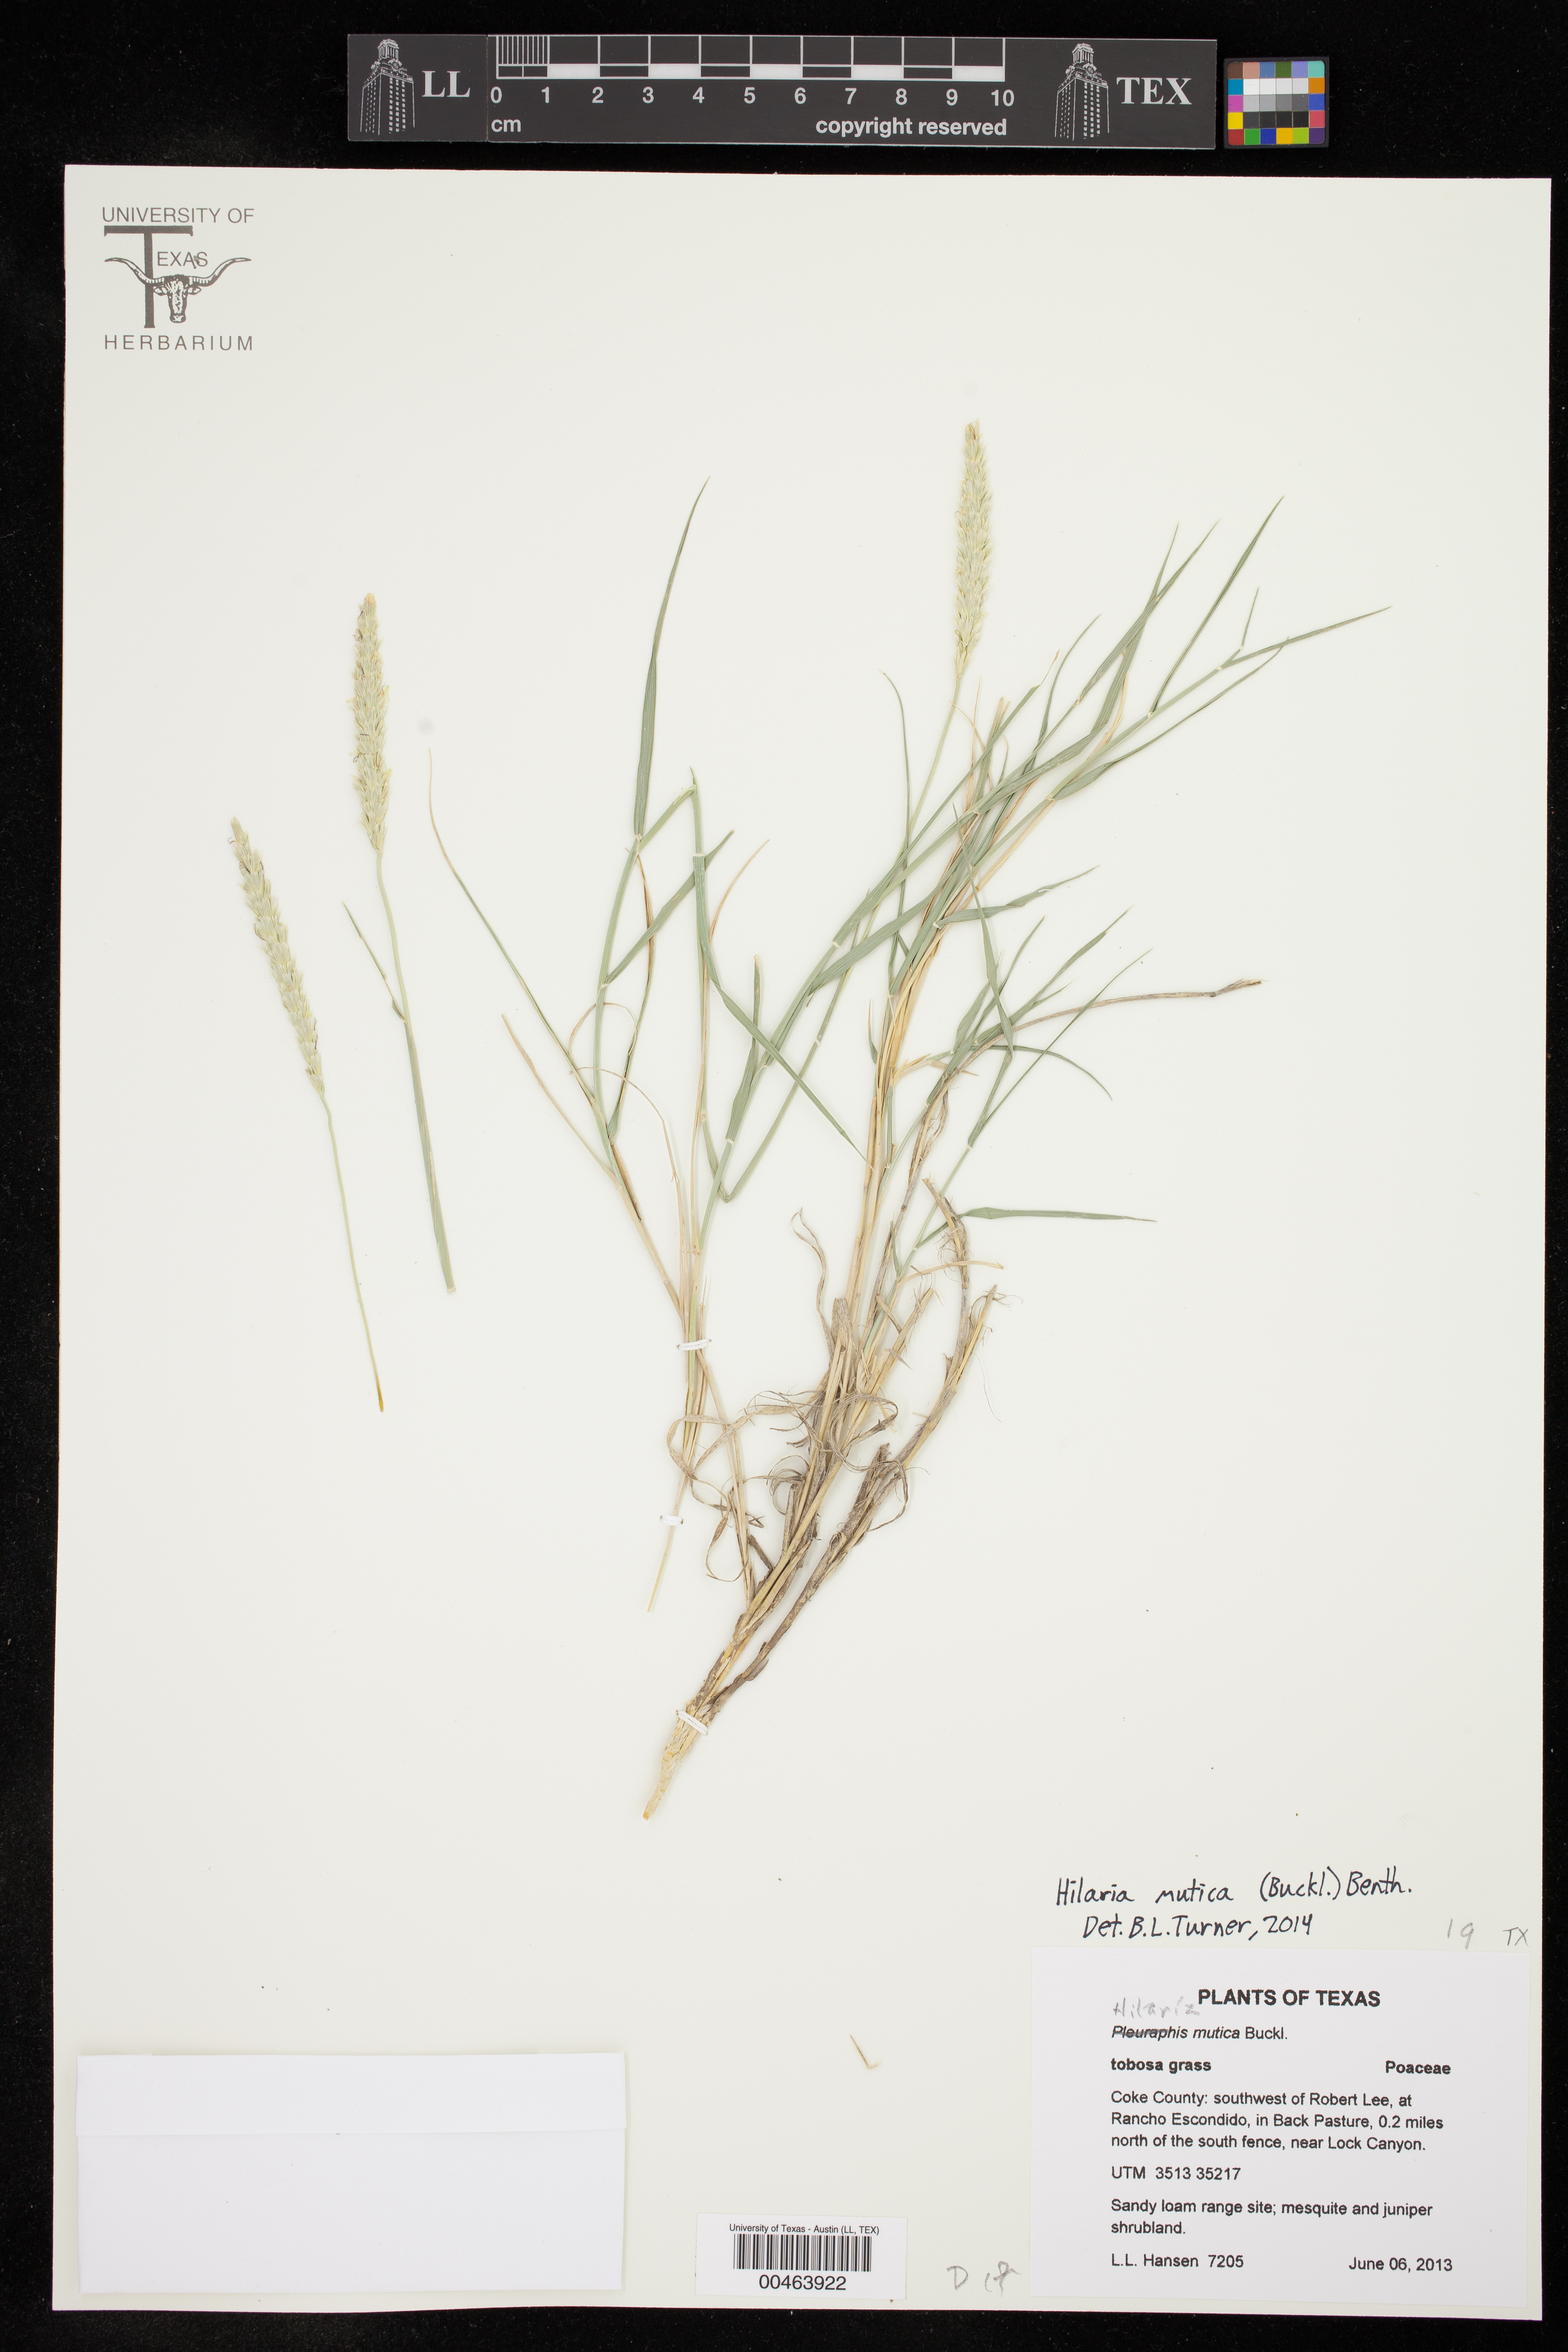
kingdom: Plantae
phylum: Tracheophyta
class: Liliopsida
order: Poales
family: Poaceae
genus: Hilaria
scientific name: Hilaria mutica
